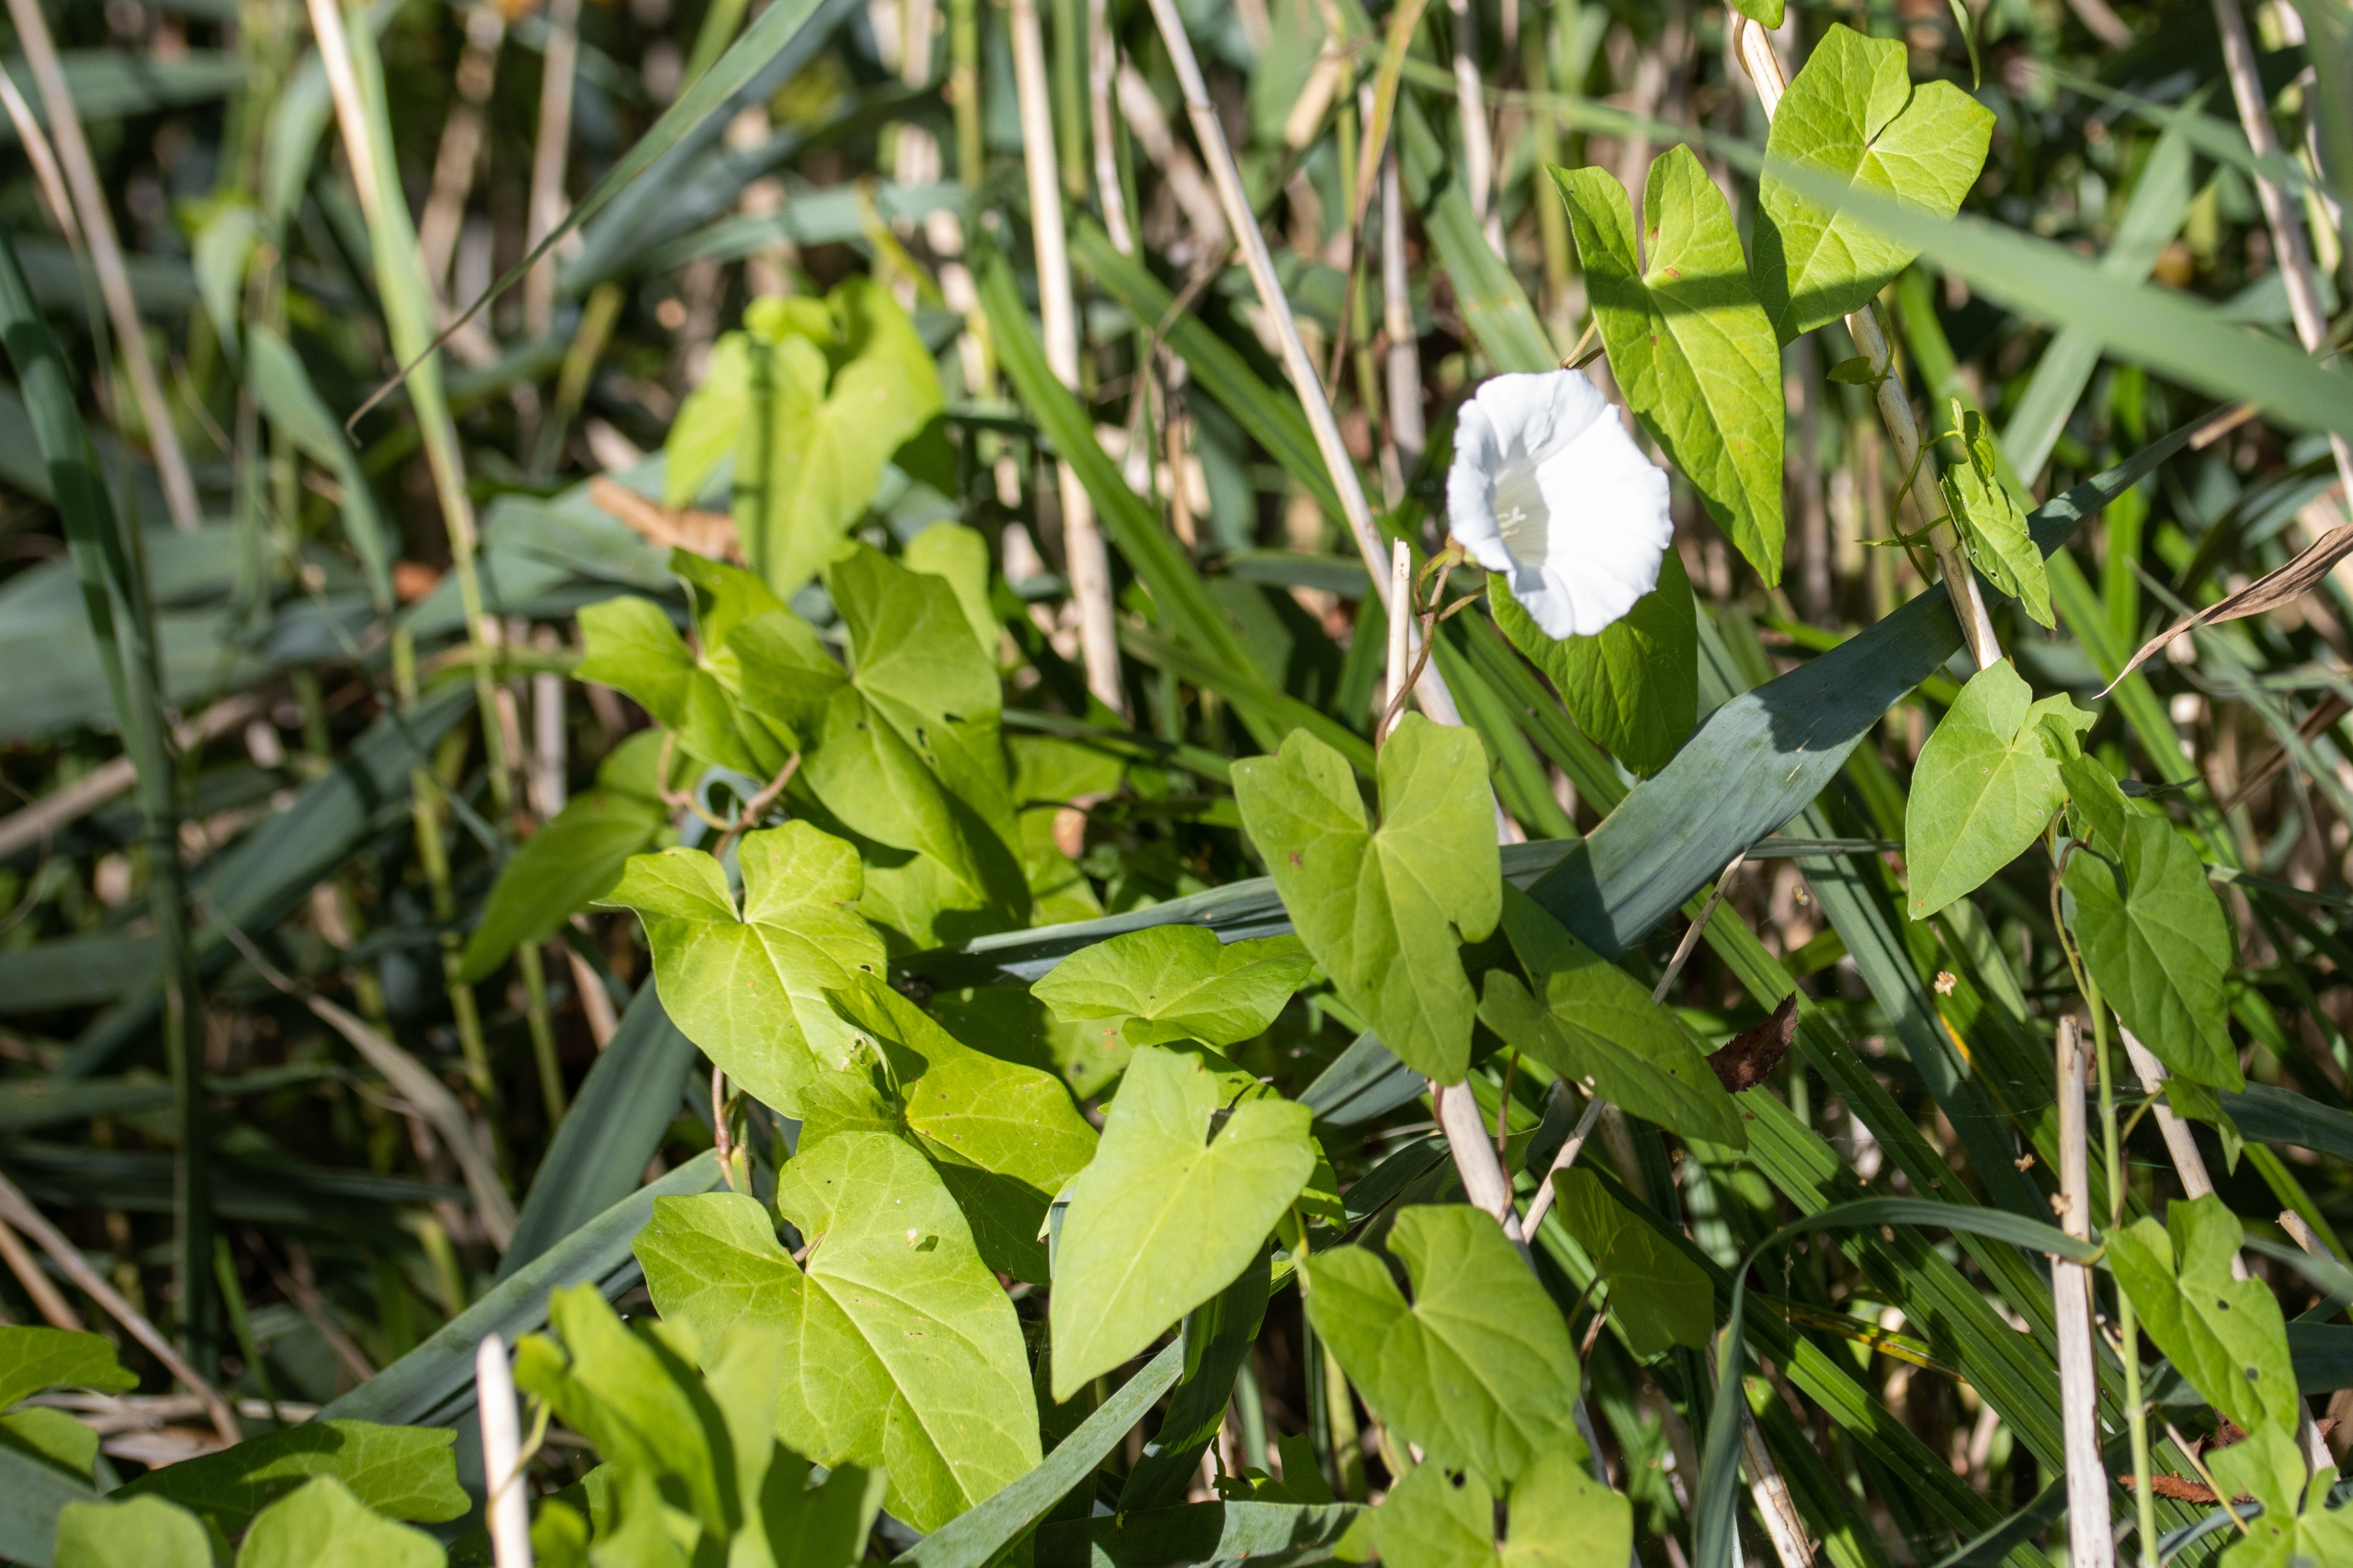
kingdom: Plantae
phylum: Tracheophyta
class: Magnoliopsida
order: Solanales
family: Convolvulaceae
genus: Calystegia
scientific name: Calystegia sepium
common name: Gærde-snerle
